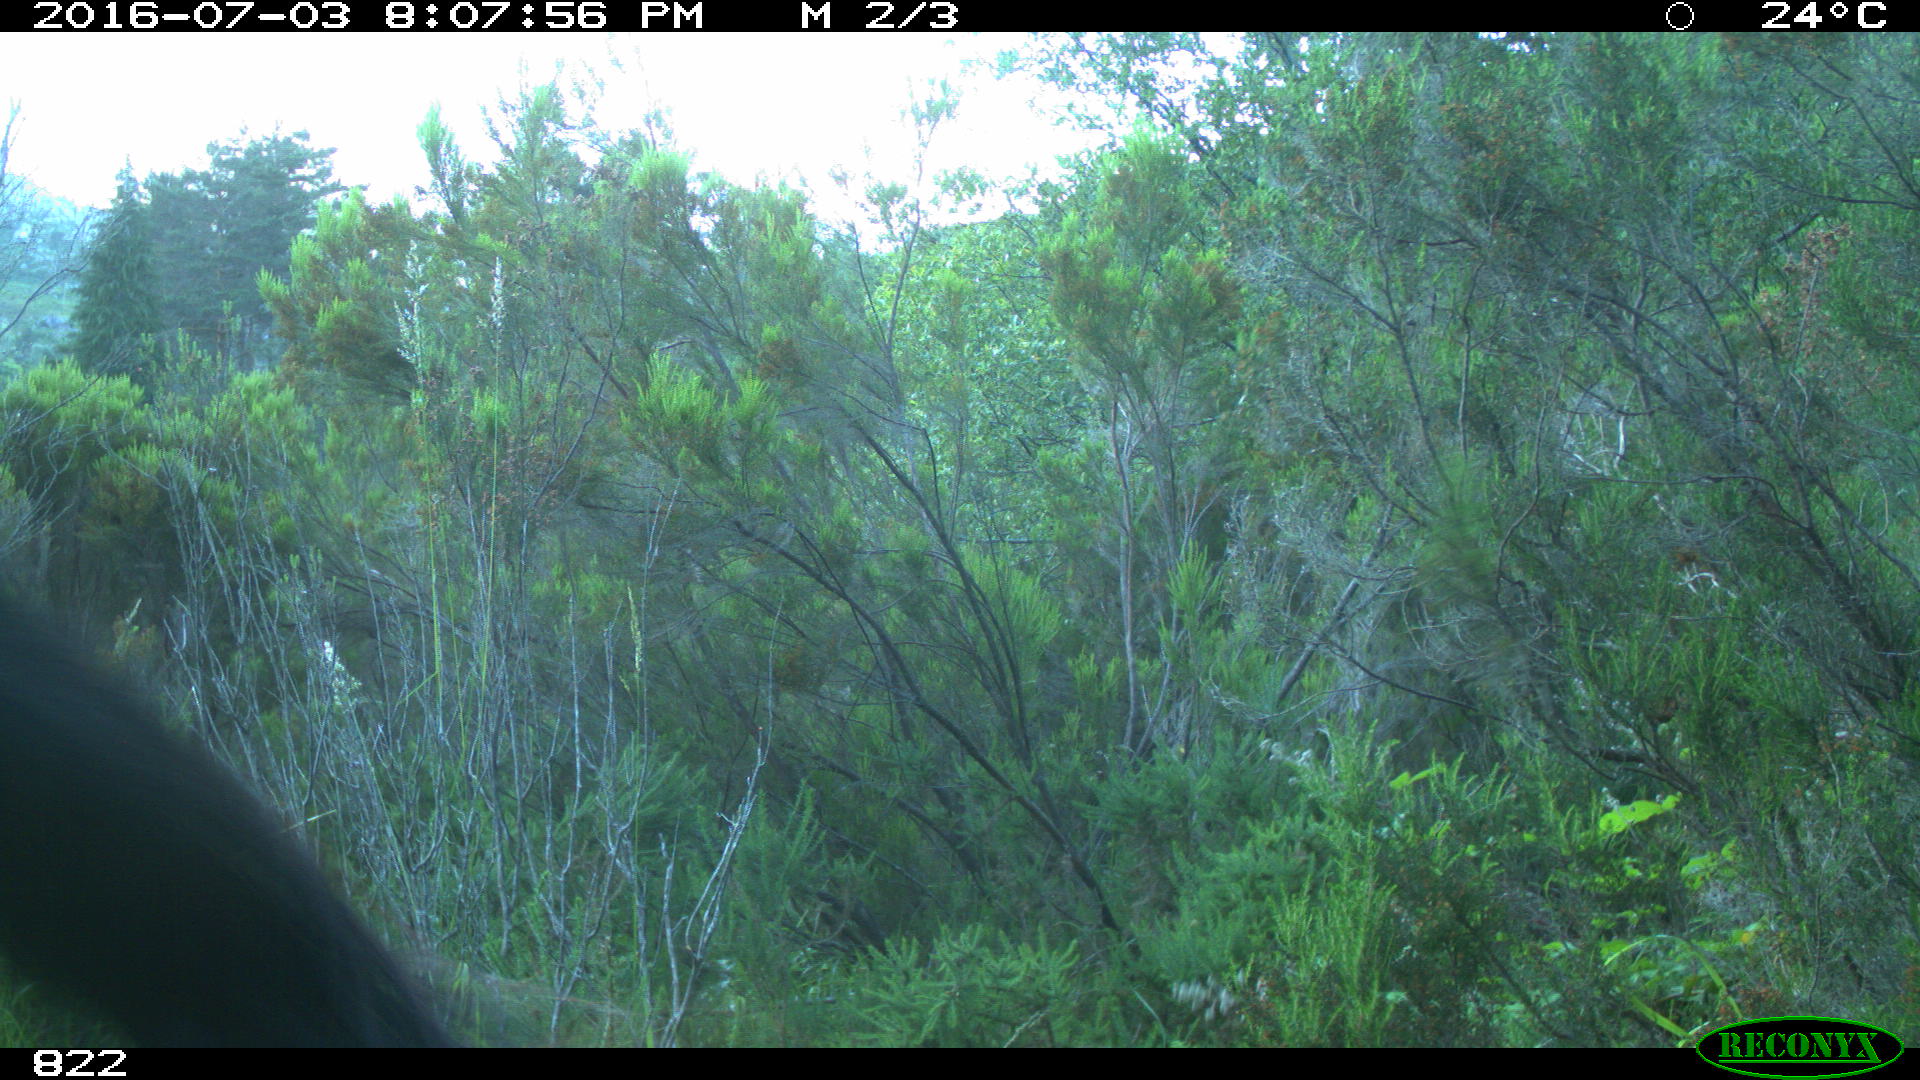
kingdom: Animalia
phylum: Chordata
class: Mammalia
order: Perissodactyla
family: Equidae
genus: Equus
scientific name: Equus caballus
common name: Horse
